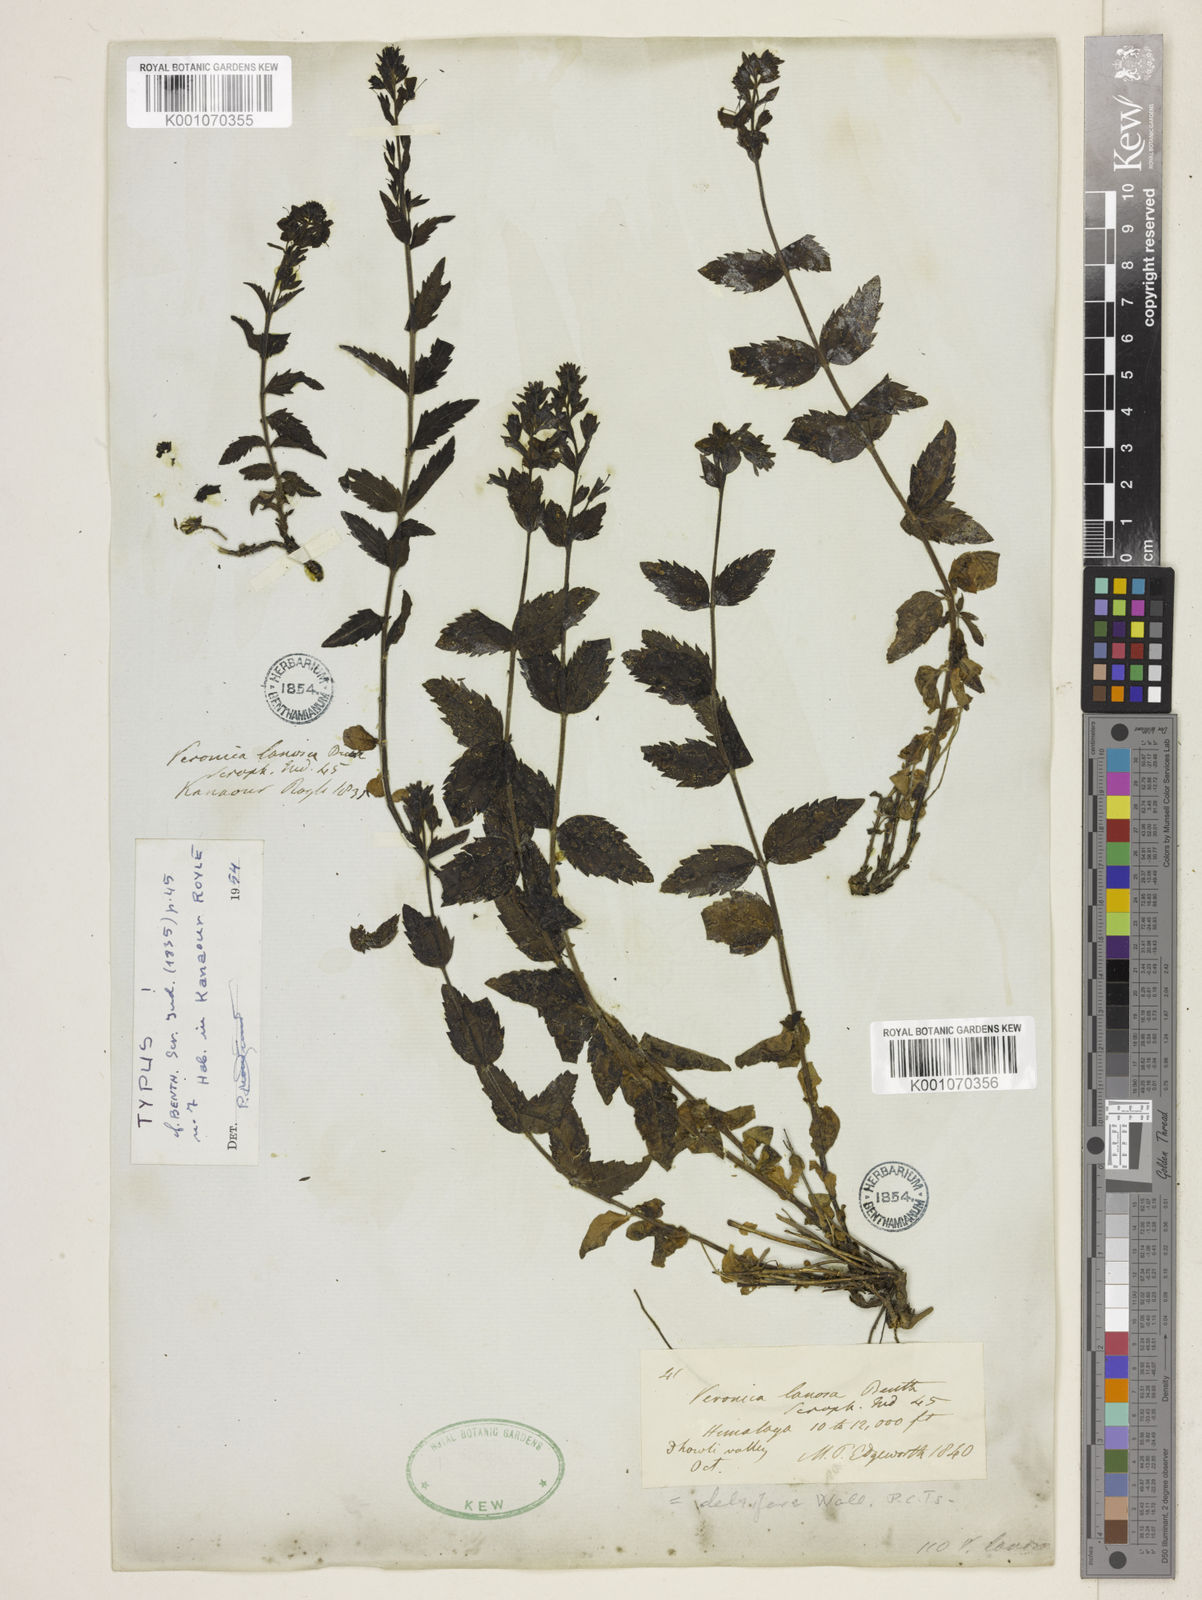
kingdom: Plantae
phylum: Tracheophyta
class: Magnoliopsida
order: Lamiales
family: Plantaginaceae
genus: Veronica
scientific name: Veronica lanosa
